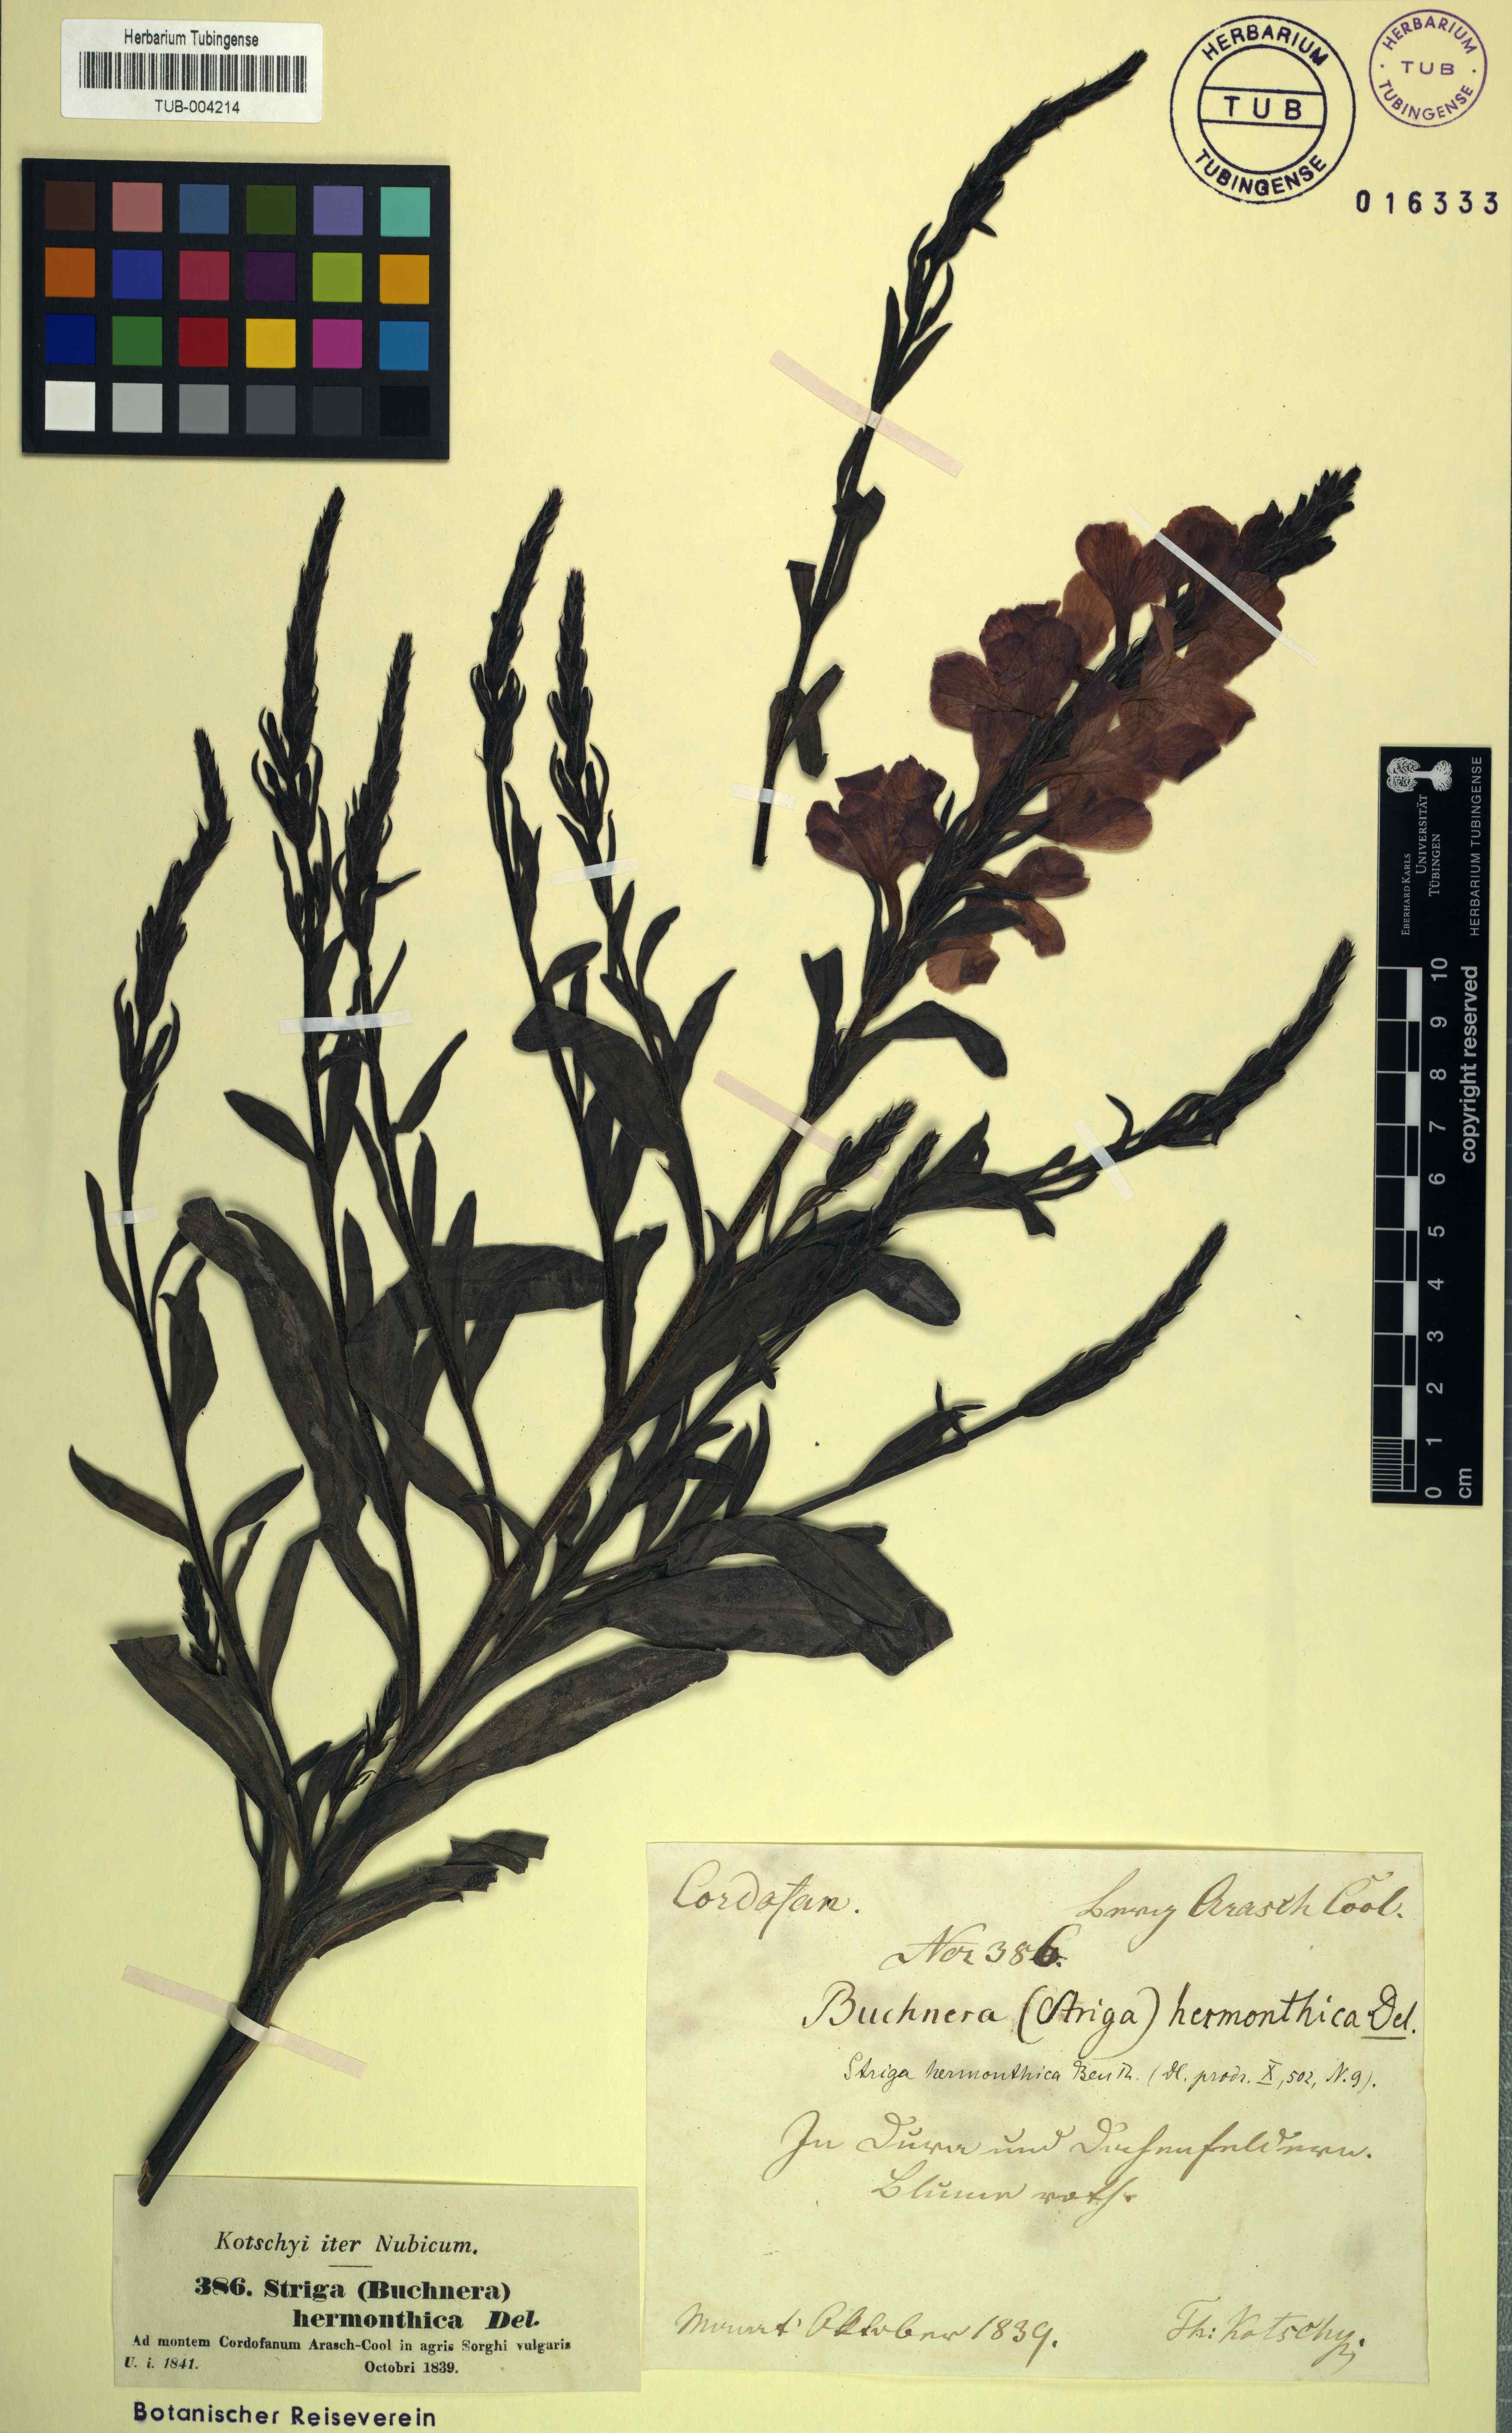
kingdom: Plantae
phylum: Tracheophyta
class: Magnoliopsida
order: Lamiales
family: Orobanchaceae
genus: Striga
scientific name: Striga hermonthica
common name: Purple witchweed
